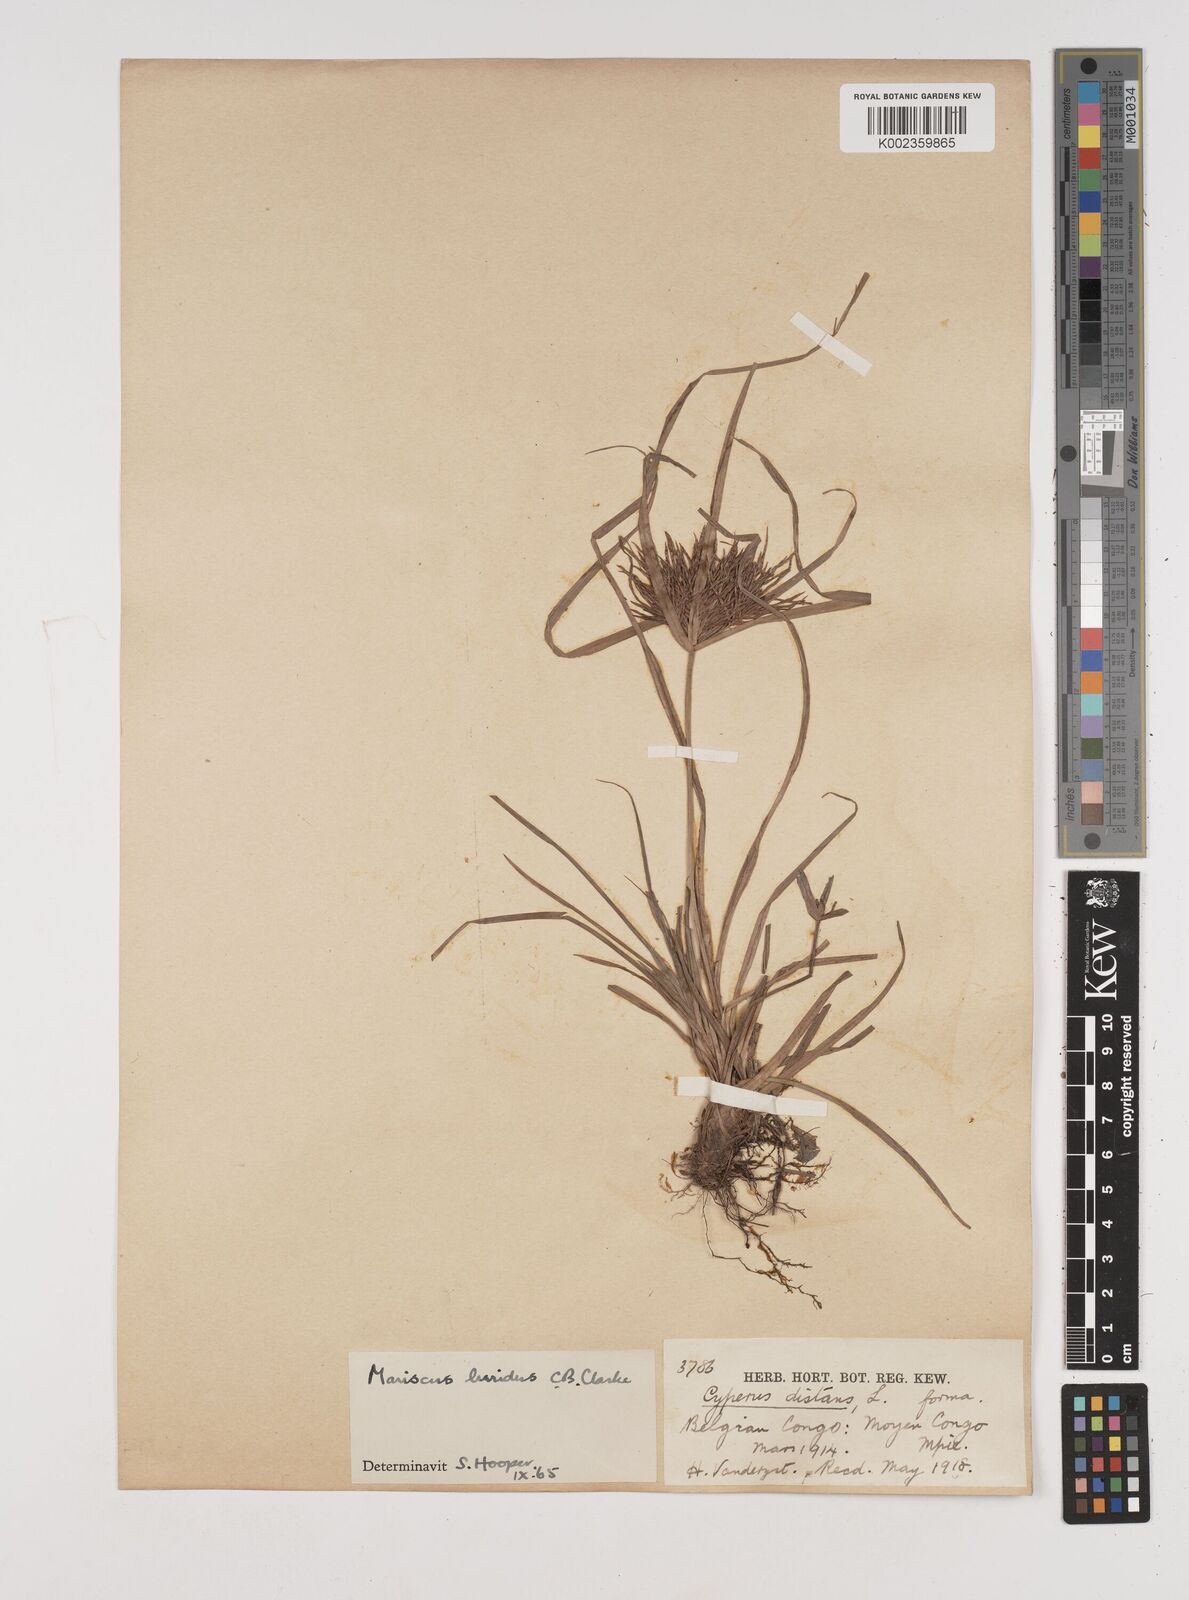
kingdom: Plantae
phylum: Tracheophyta
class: Liliopsida
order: Poales
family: Cyperaceae
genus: Cyperus
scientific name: Cyperus tenuis
